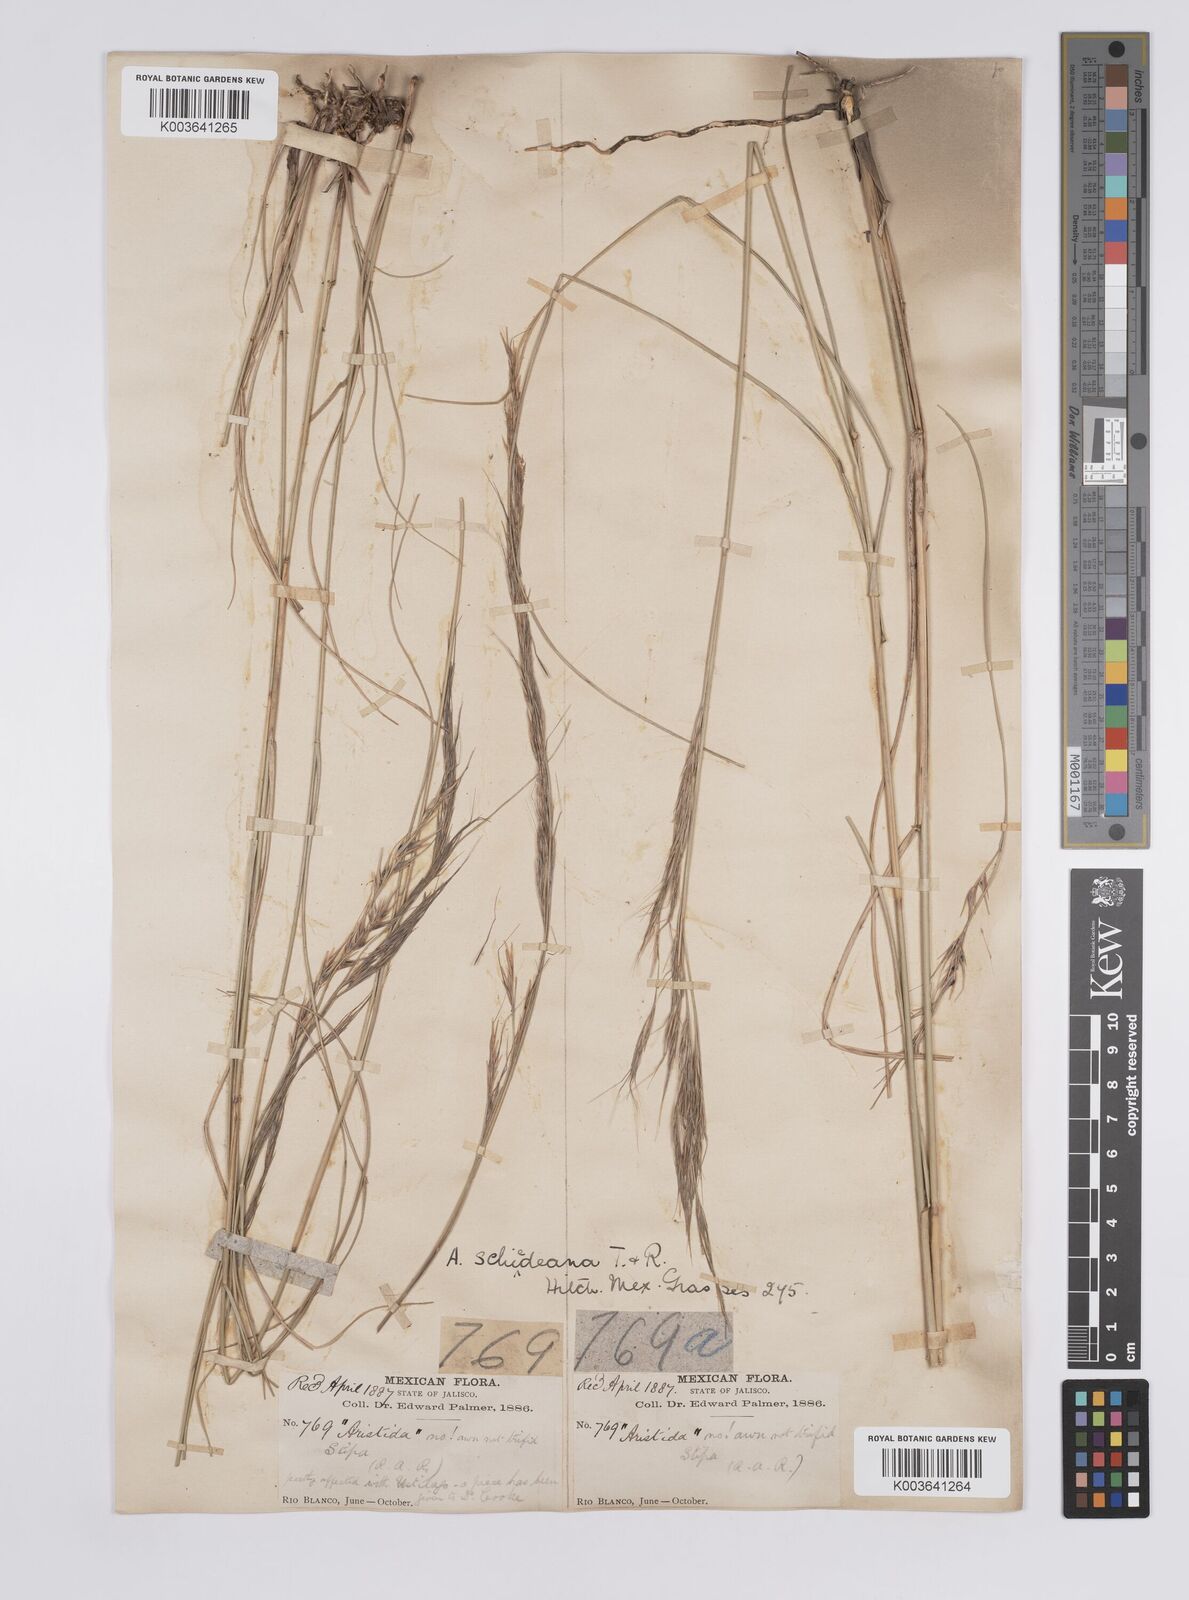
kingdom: Plantae
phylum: Tracheophyta
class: Liliopsida
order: Poales
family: Poaceae
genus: Aristida
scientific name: Aristida schiedeana
